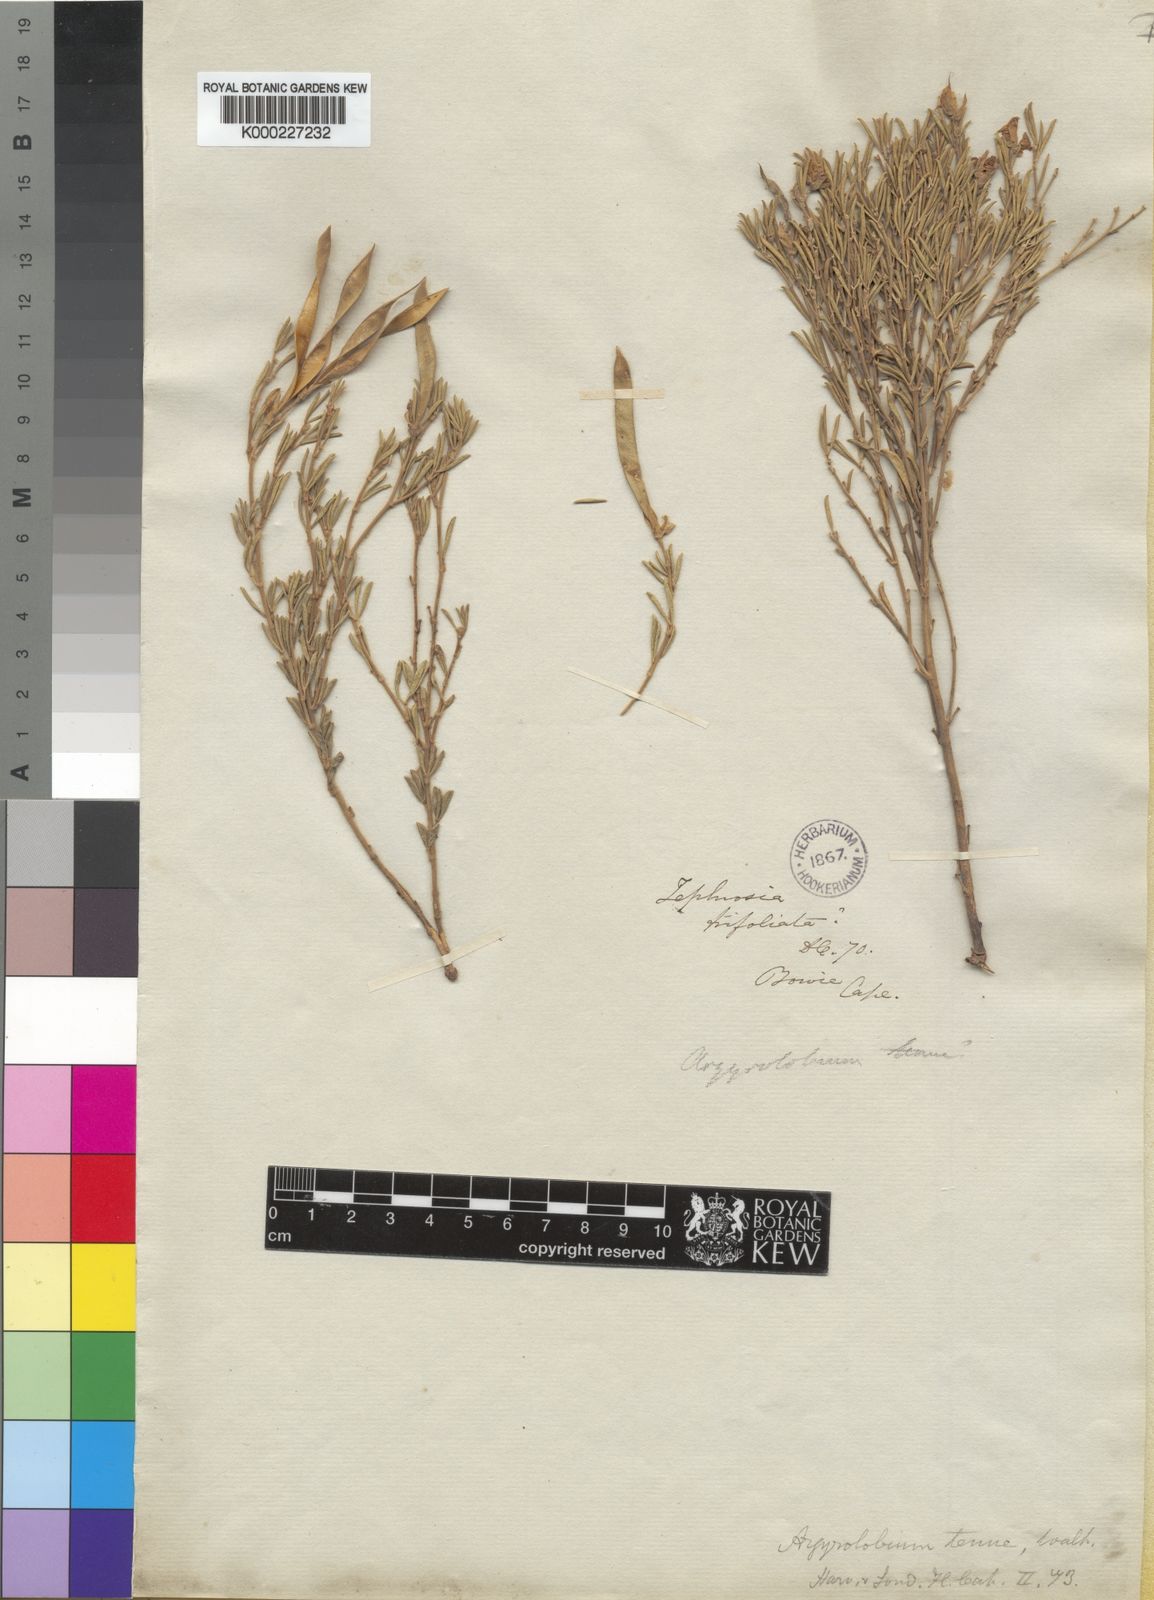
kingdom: Plantae
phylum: Tracheophyta
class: Magnoliopsida
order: Fabales
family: Fabaceae
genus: Argyrolobium
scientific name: Argyrolobium tuberosum
